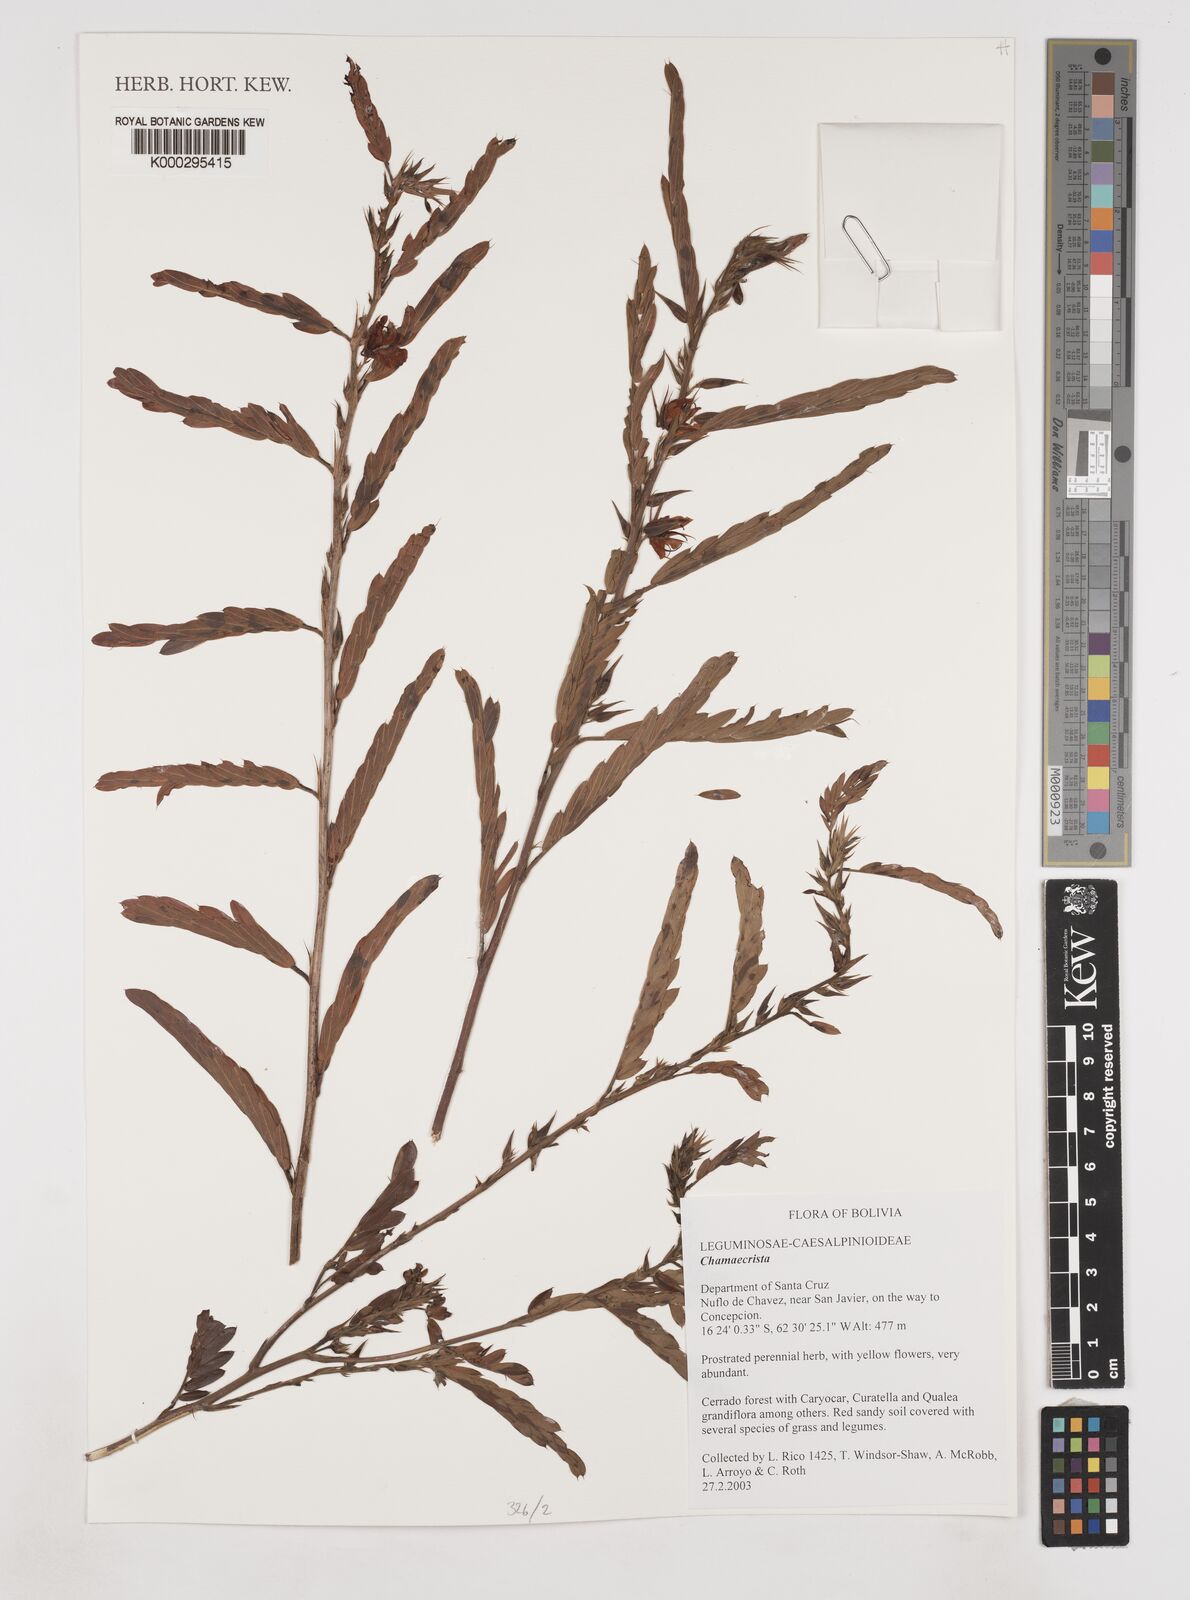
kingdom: Plantae
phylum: Tracheophyta
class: Magnoliopsida
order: Fabales
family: Fabaceae
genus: Chamaecrista
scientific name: Chamaecrista glandulosa
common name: Wild peas
